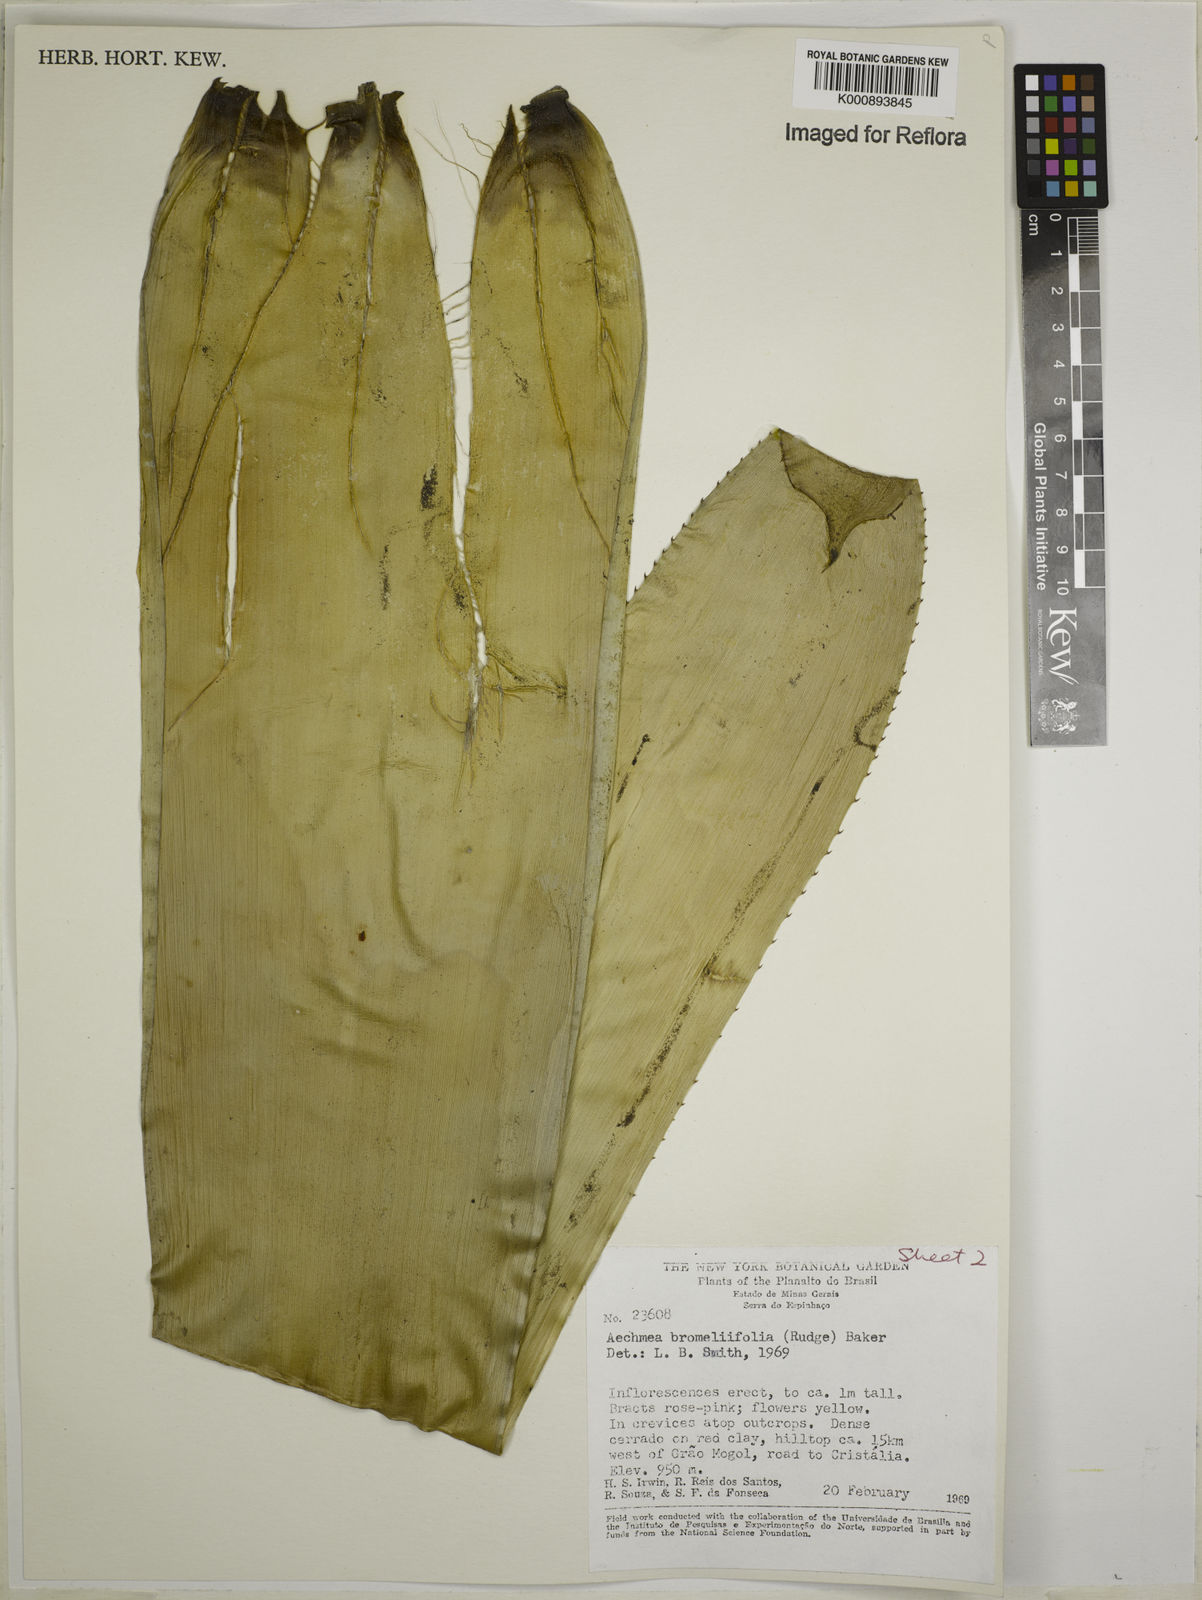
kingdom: Plantae
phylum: Tracheophyta
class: Liliopsida
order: Poales
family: Bromeliaceae
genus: Aechmea
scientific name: Aechmea
